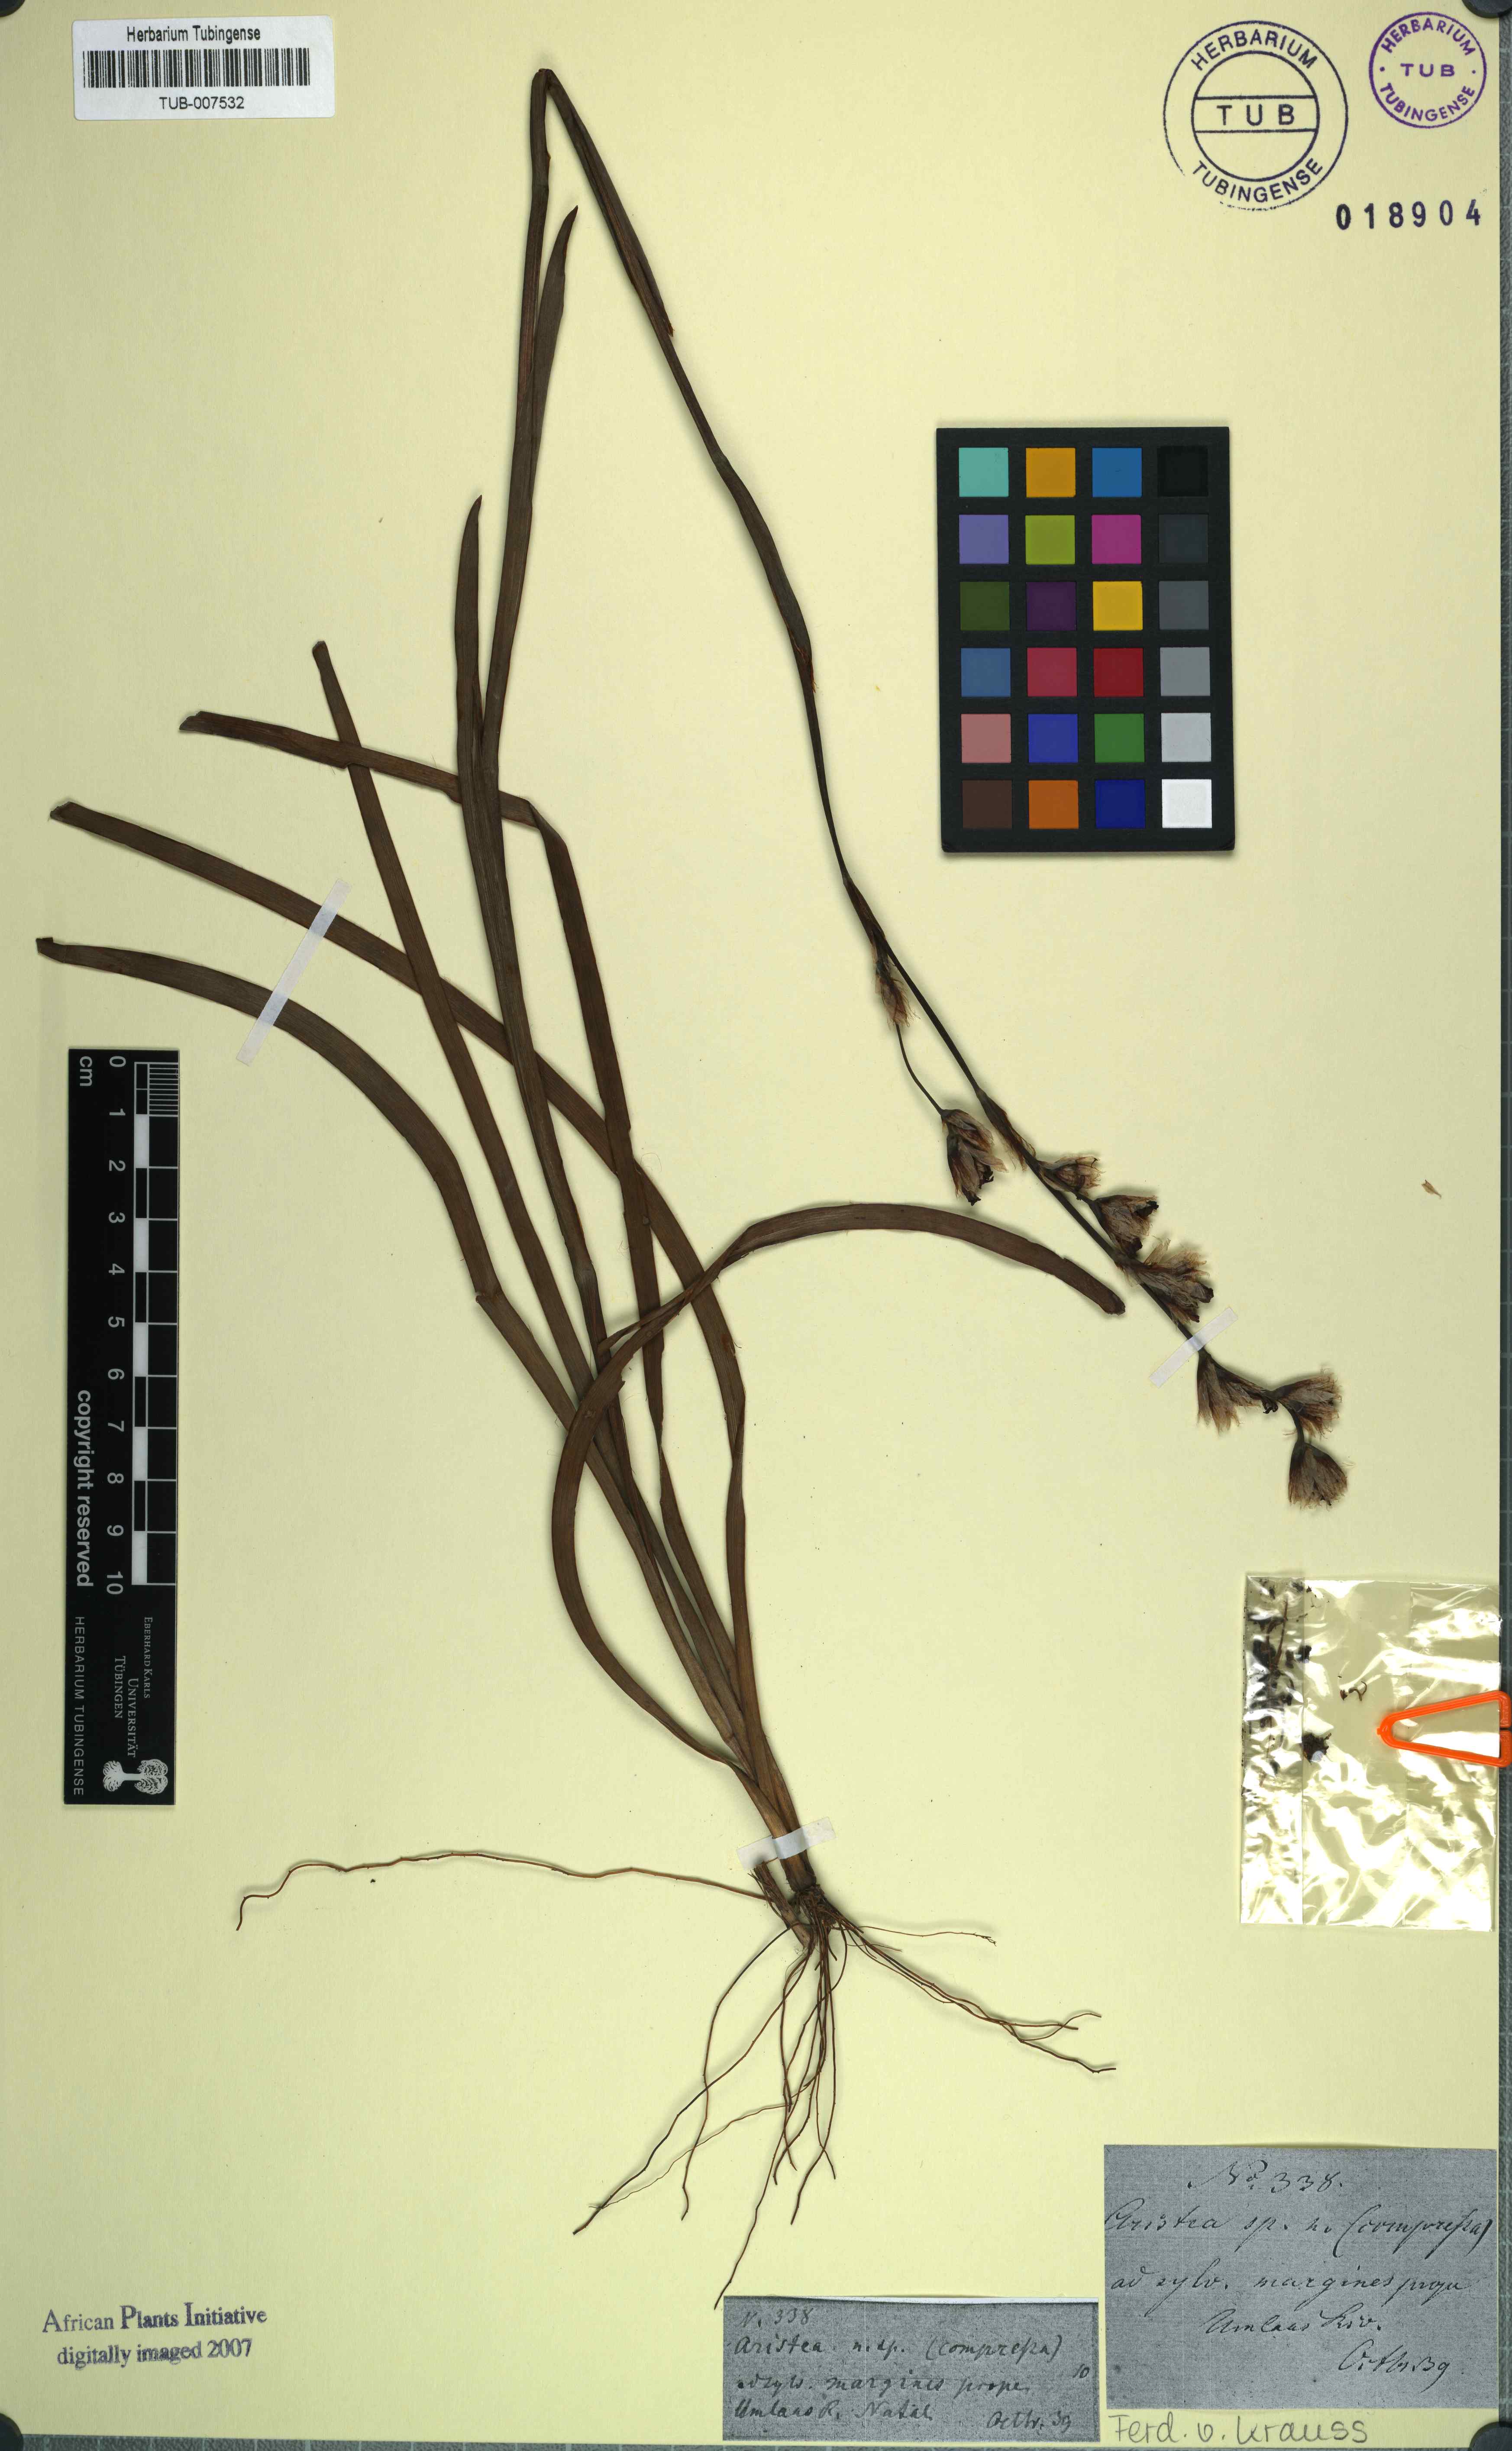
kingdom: Plantae
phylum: Tracheophyta
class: Liliopsida
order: Asparagales
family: Iridaceae
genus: Aristea
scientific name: Aristea compressa
